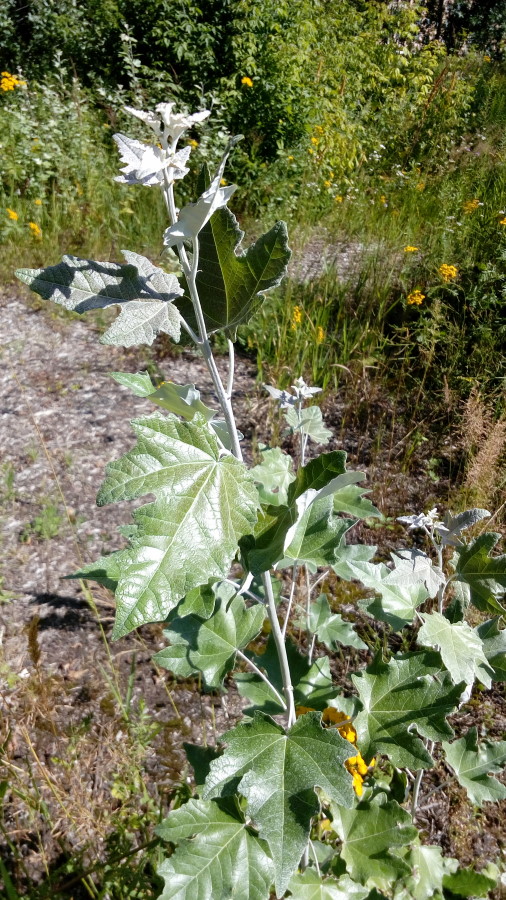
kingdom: Plantae
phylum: Tracheophyta
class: Magnoliopsida
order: Malpighiales
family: Salicaceae
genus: Populus
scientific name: Populus alba
